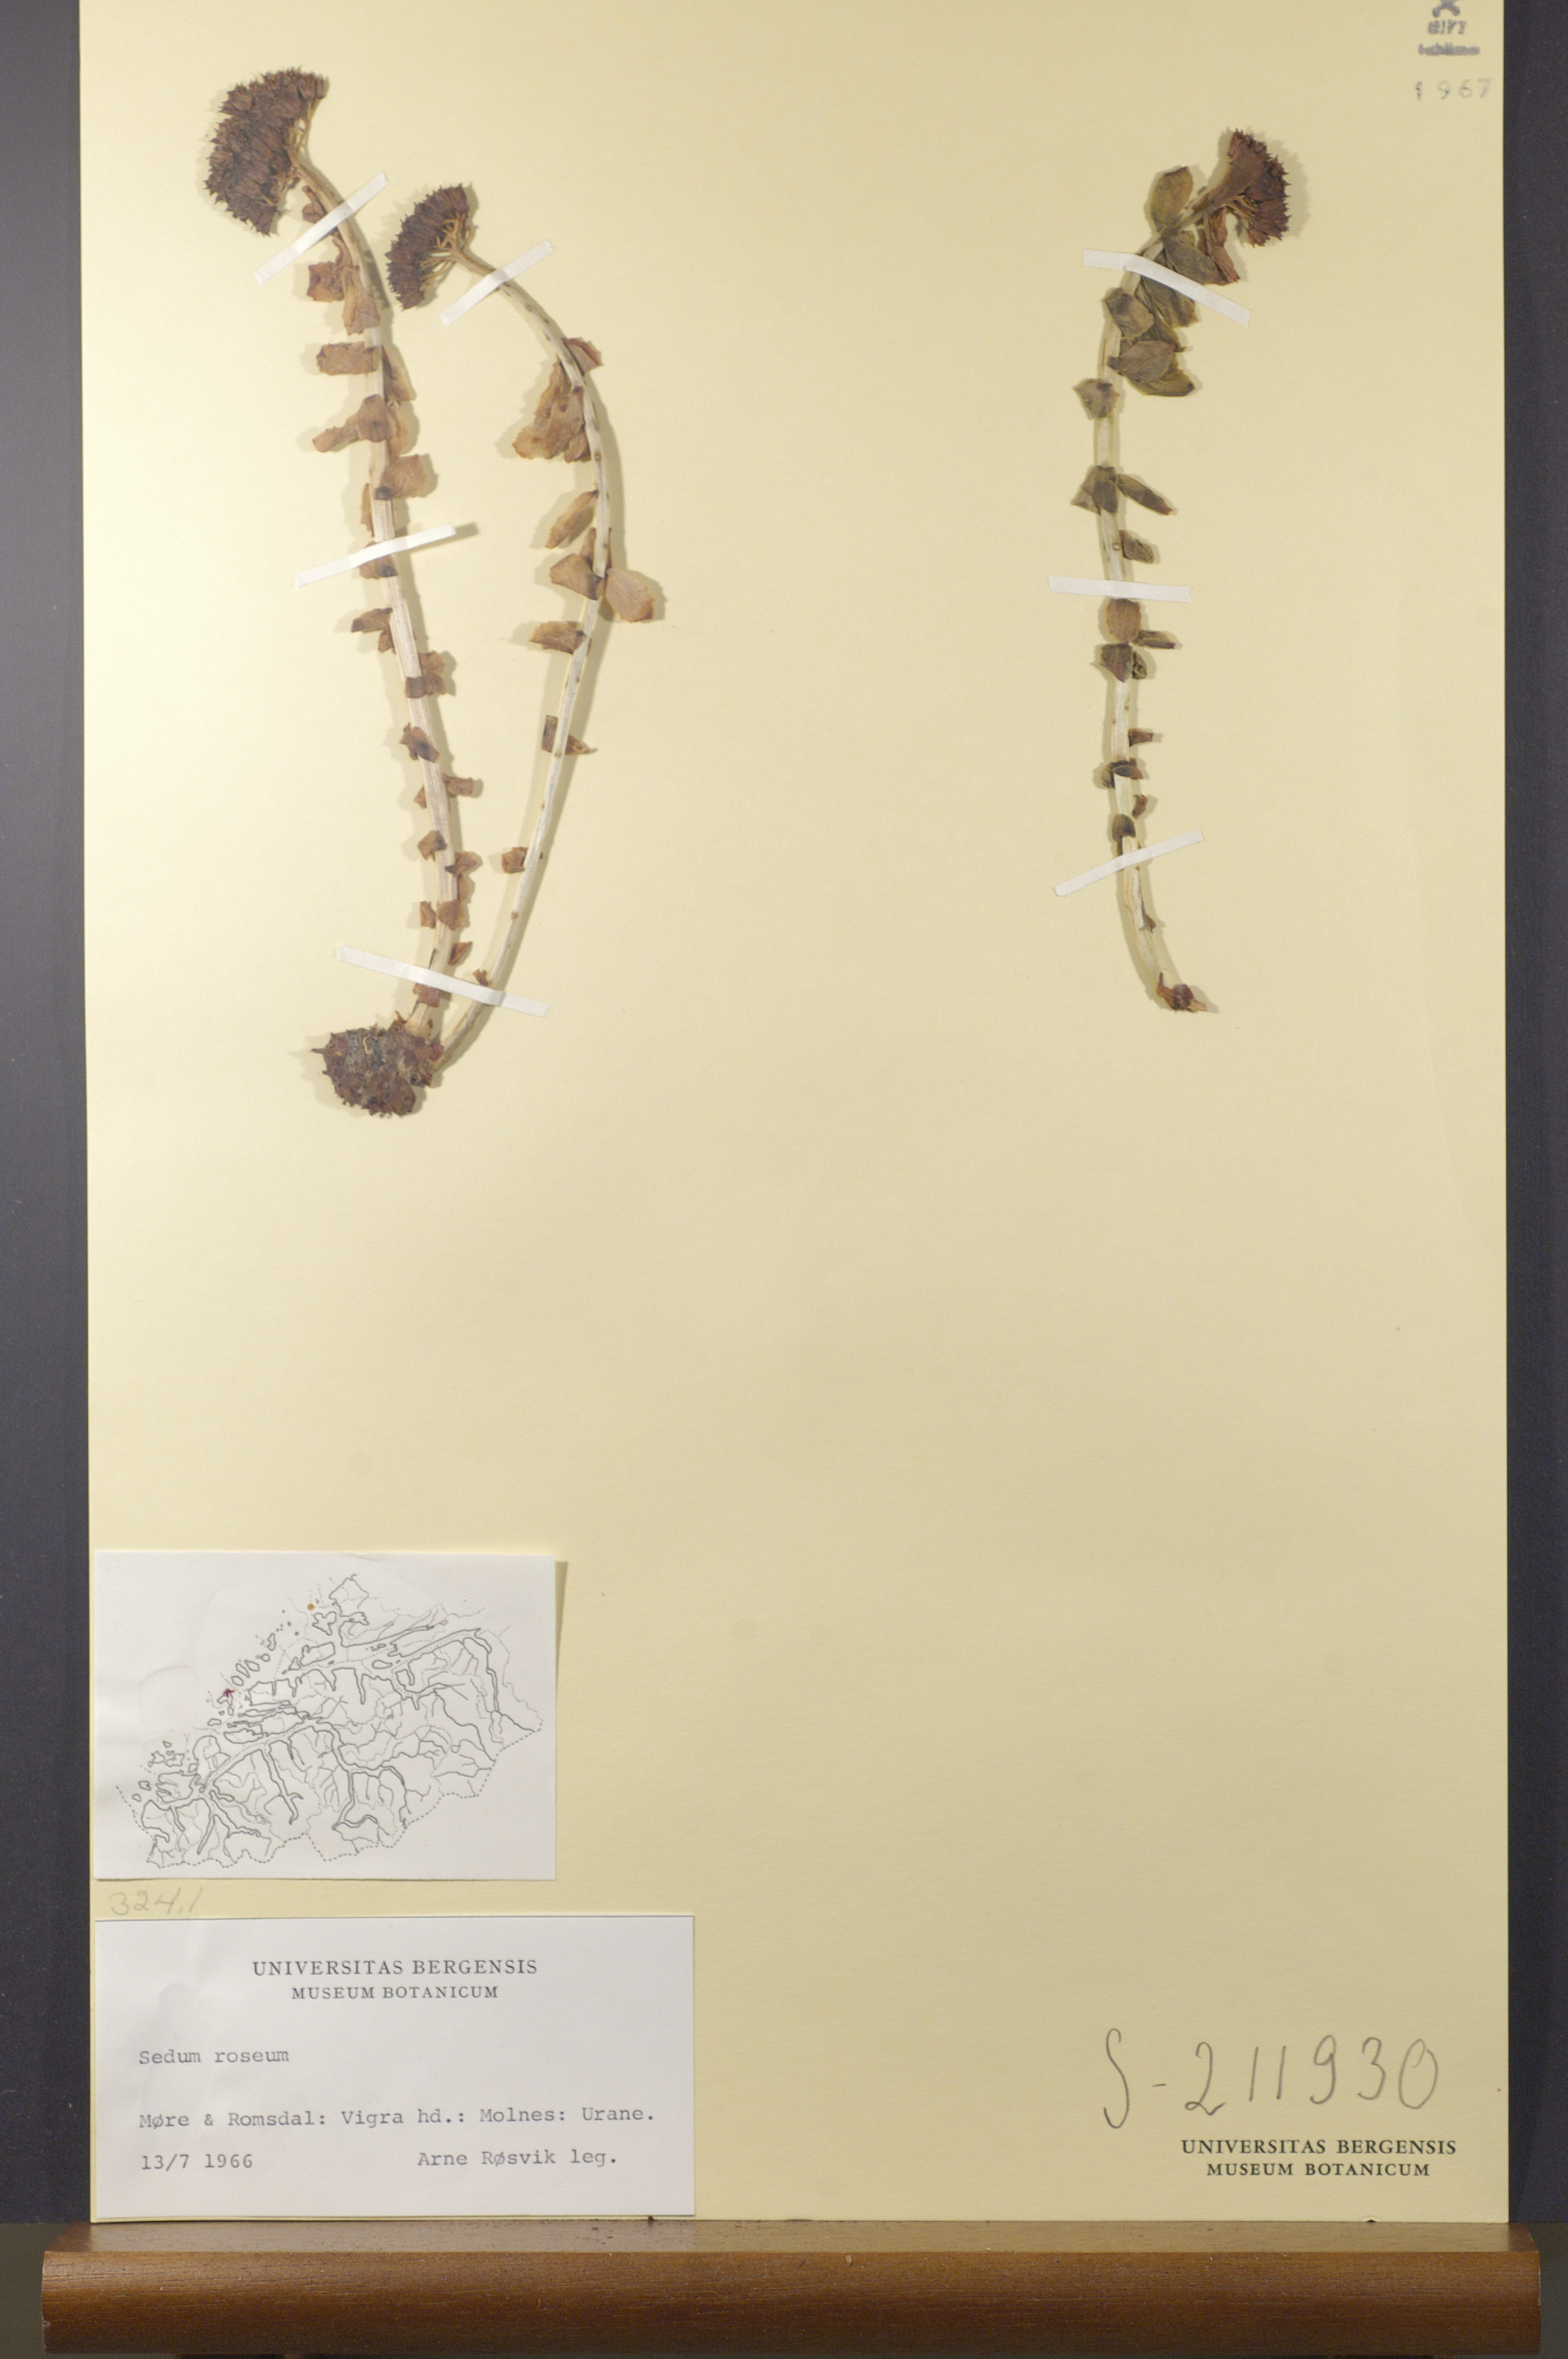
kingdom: Plantae
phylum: Tracheophyta
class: Magnoliopsida
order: Saxifragales
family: Crassulaceae
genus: Rhodiola
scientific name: Rhodiola rosea
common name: Roseroot
